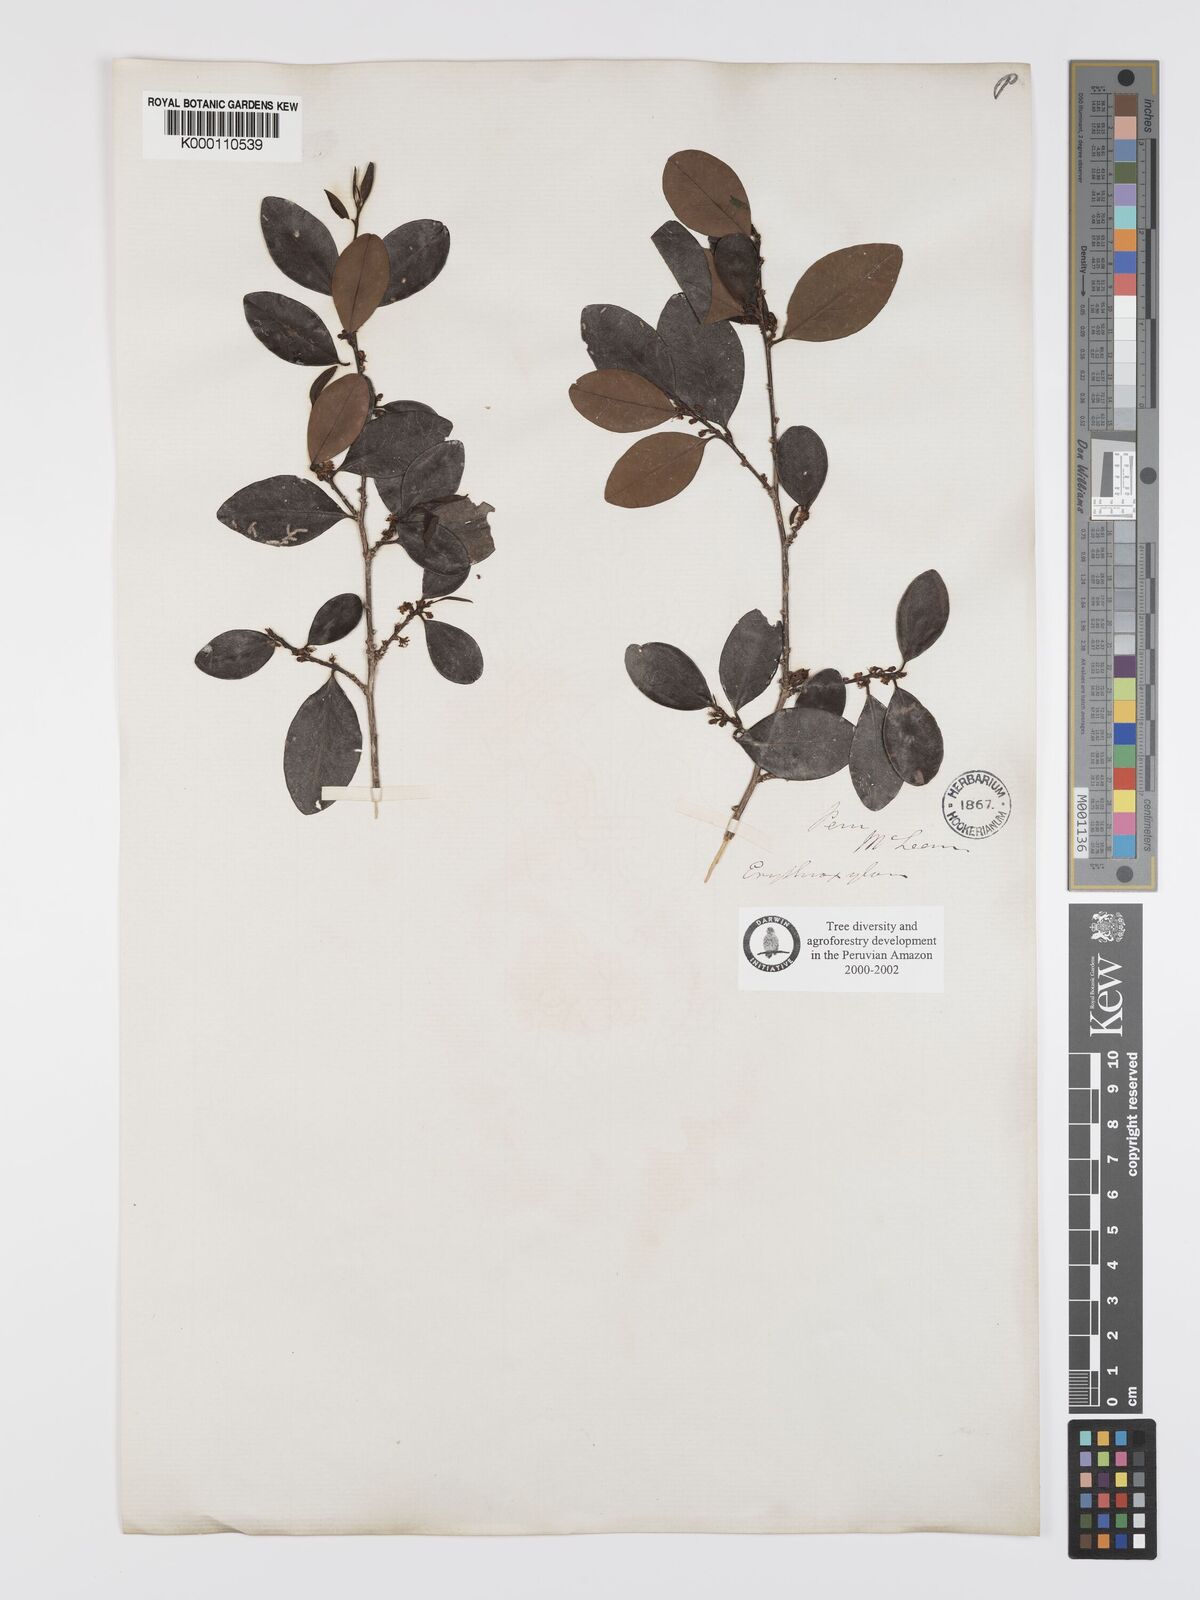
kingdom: Plantae
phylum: Tracheophyta
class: Magnoliopsida
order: Malpighiales
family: Erythroxylaceae
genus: Erythroxylum
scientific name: Erythroxylum ulei
